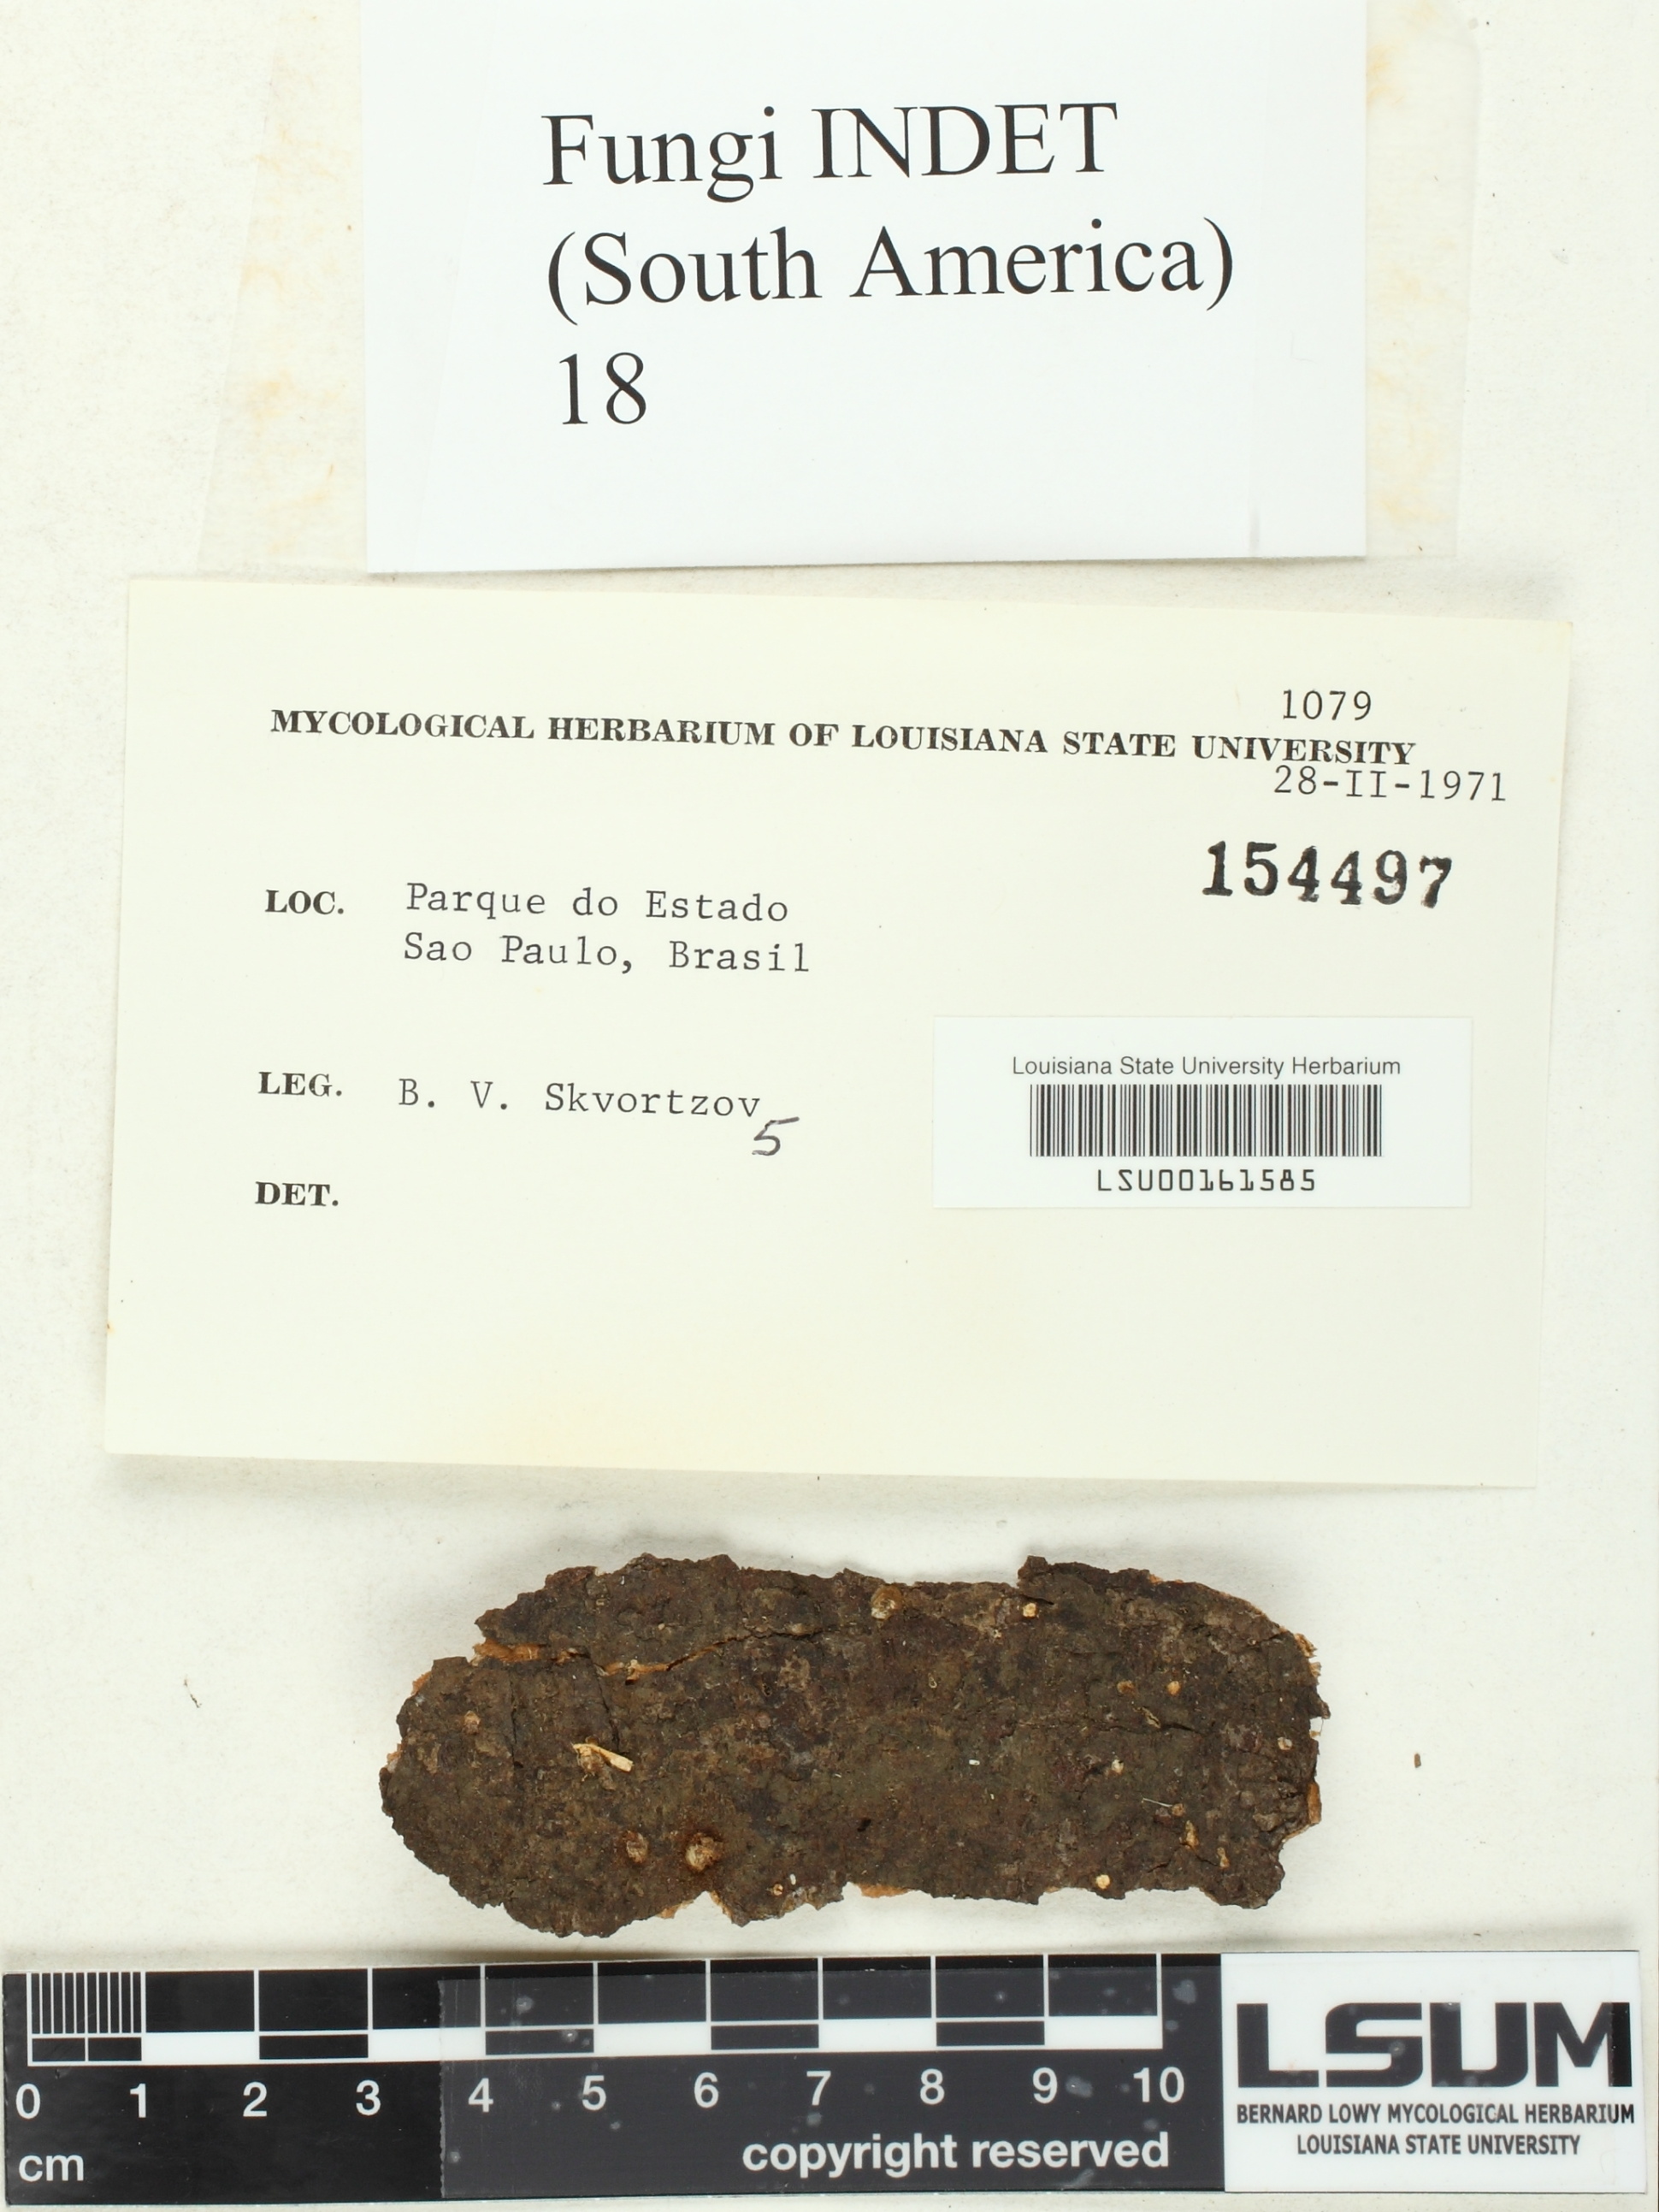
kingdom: Fungi
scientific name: Fungi
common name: Fungi
